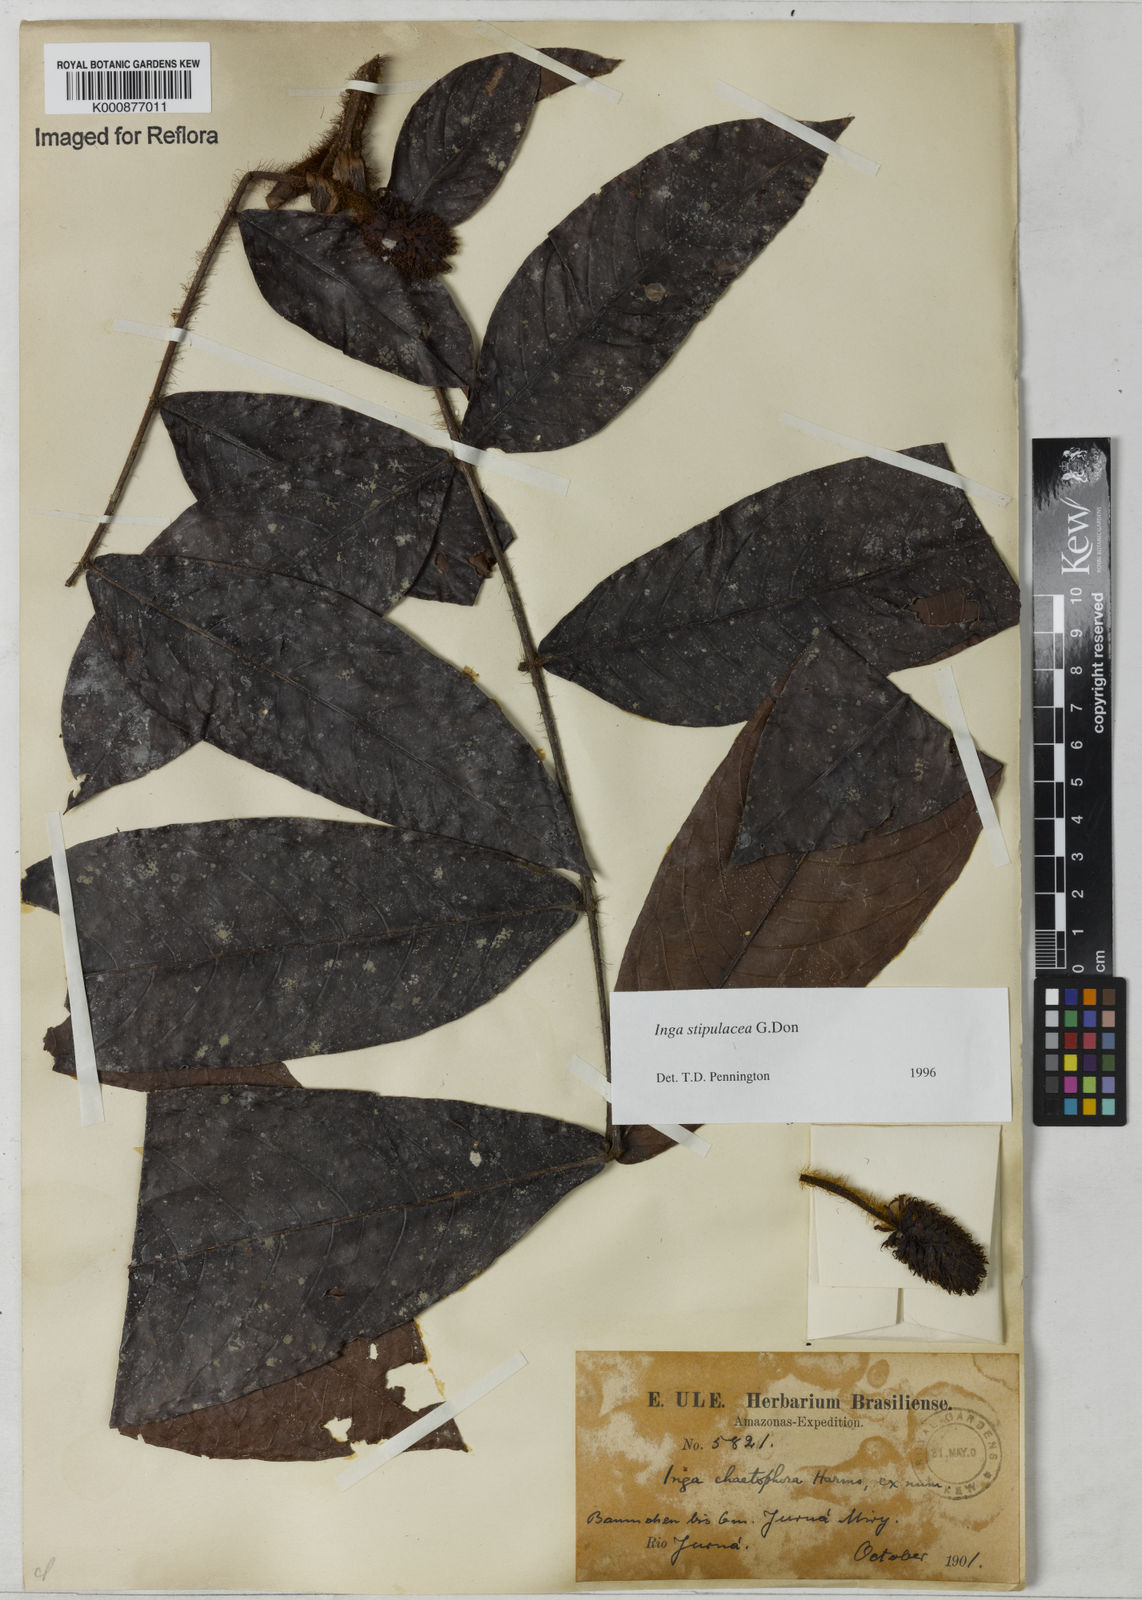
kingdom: Plantae
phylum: Tracheophyta
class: Magnoliopsida
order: Fabales
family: Fabaceae
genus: Inga
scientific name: Inga stipulacea
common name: Stipulate inga
